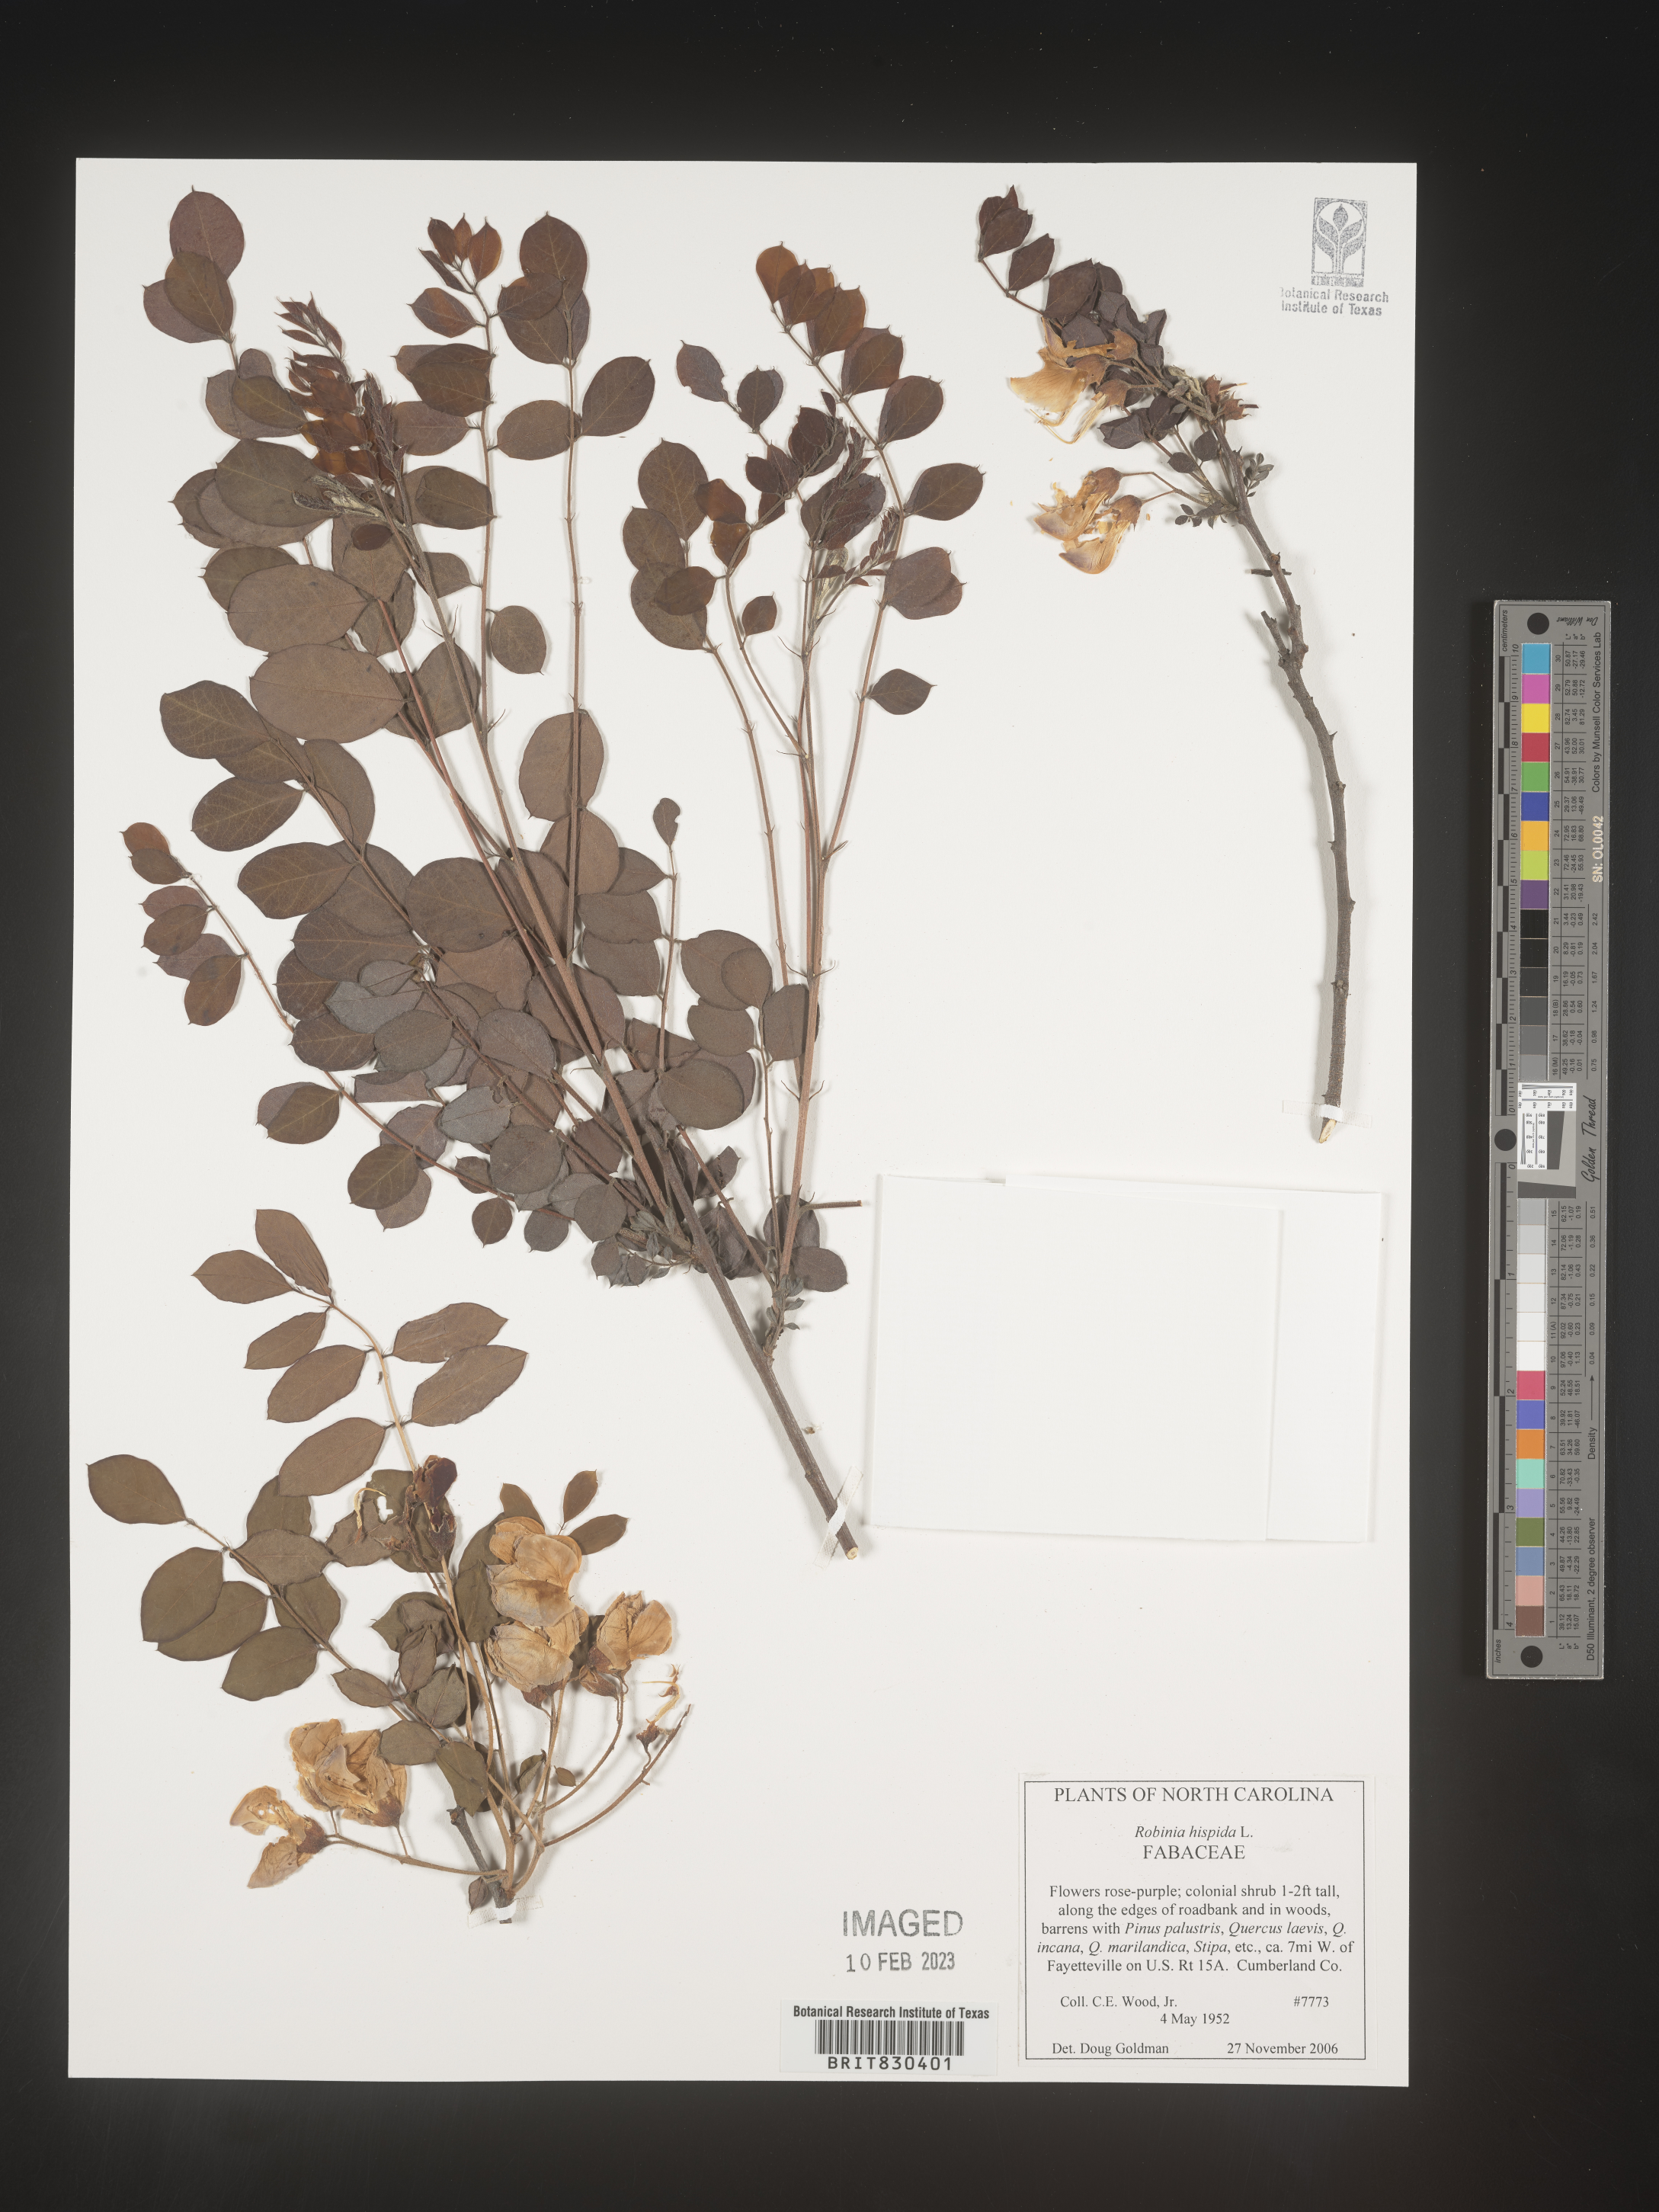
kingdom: Plantae
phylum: Tracheophyta
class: Magnoliopsida
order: Fabales
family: Fabaceae
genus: Robinia
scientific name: Robinia hispida
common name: Bristly locust
